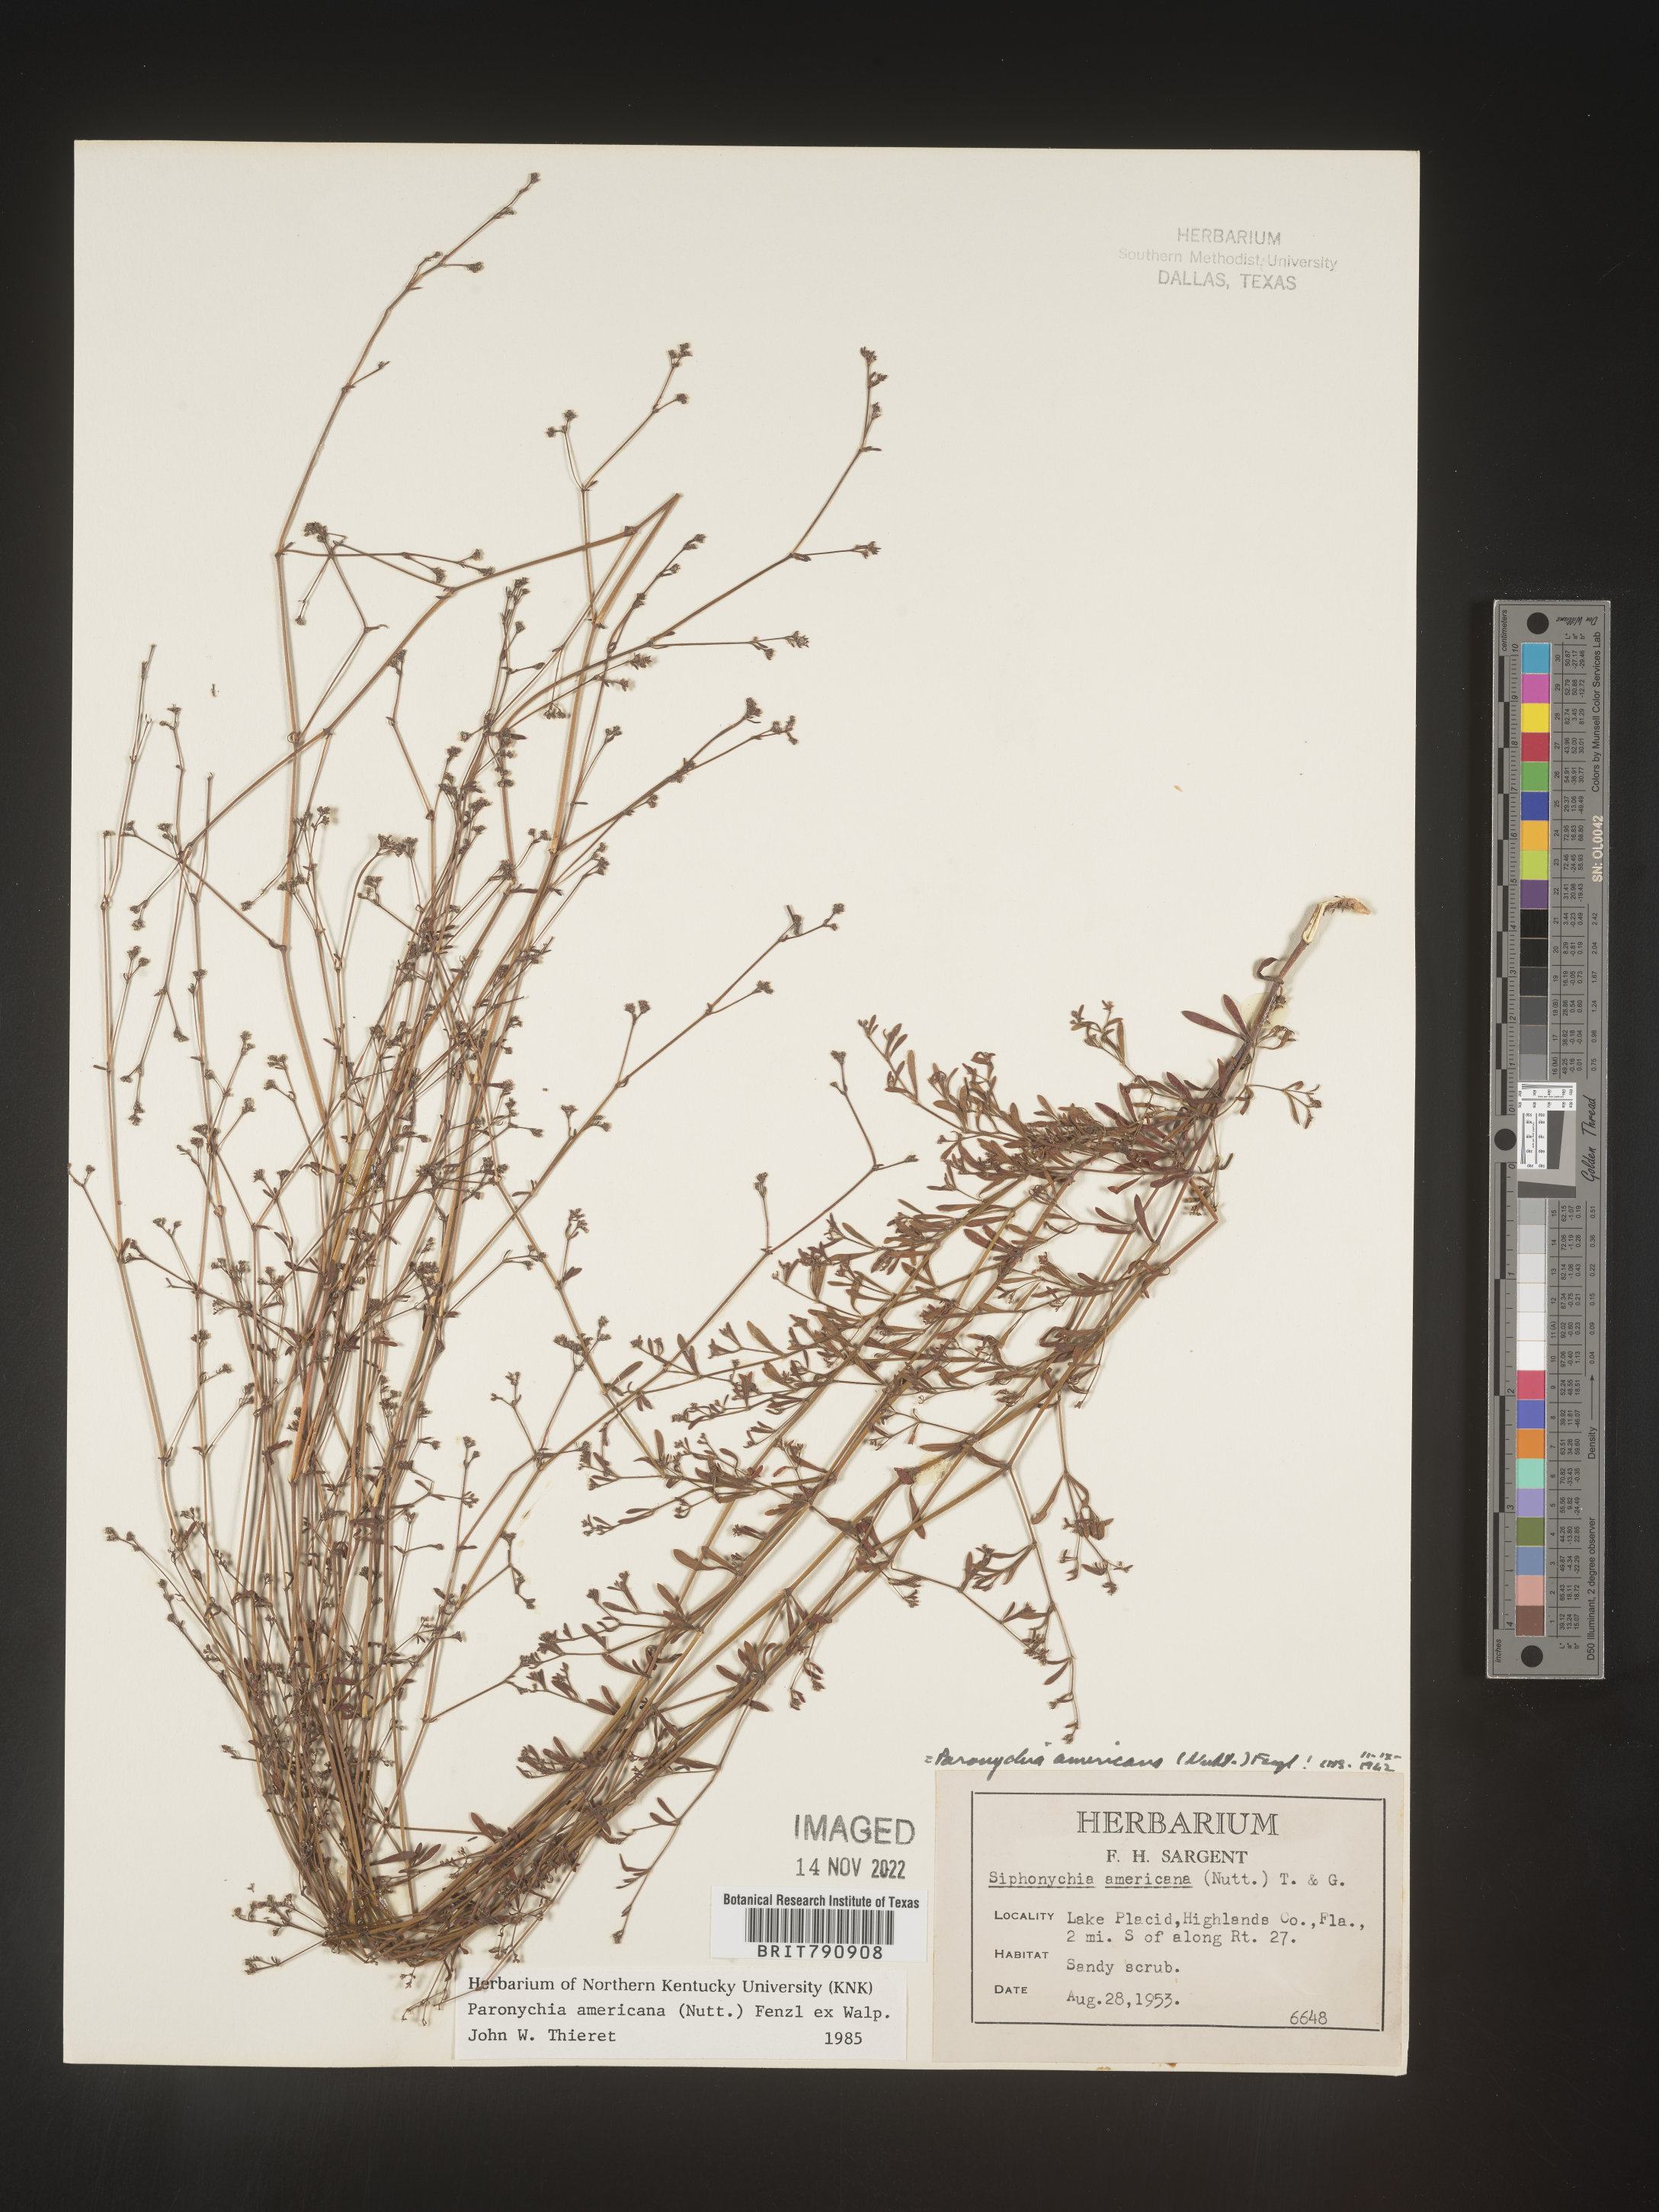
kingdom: Plantae
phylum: Tracheophyta
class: Magnoliopsida
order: Caryophyllales
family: Caryophyllaceae
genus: Paronychia
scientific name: Paronychia americana
